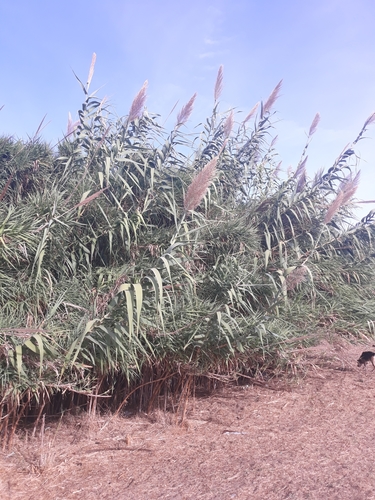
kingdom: Plantae
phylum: Tracheophyta
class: Liliopsida
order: Poales
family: Poaceae
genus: Arundo
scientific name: Arundo donax
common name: Giant reed
